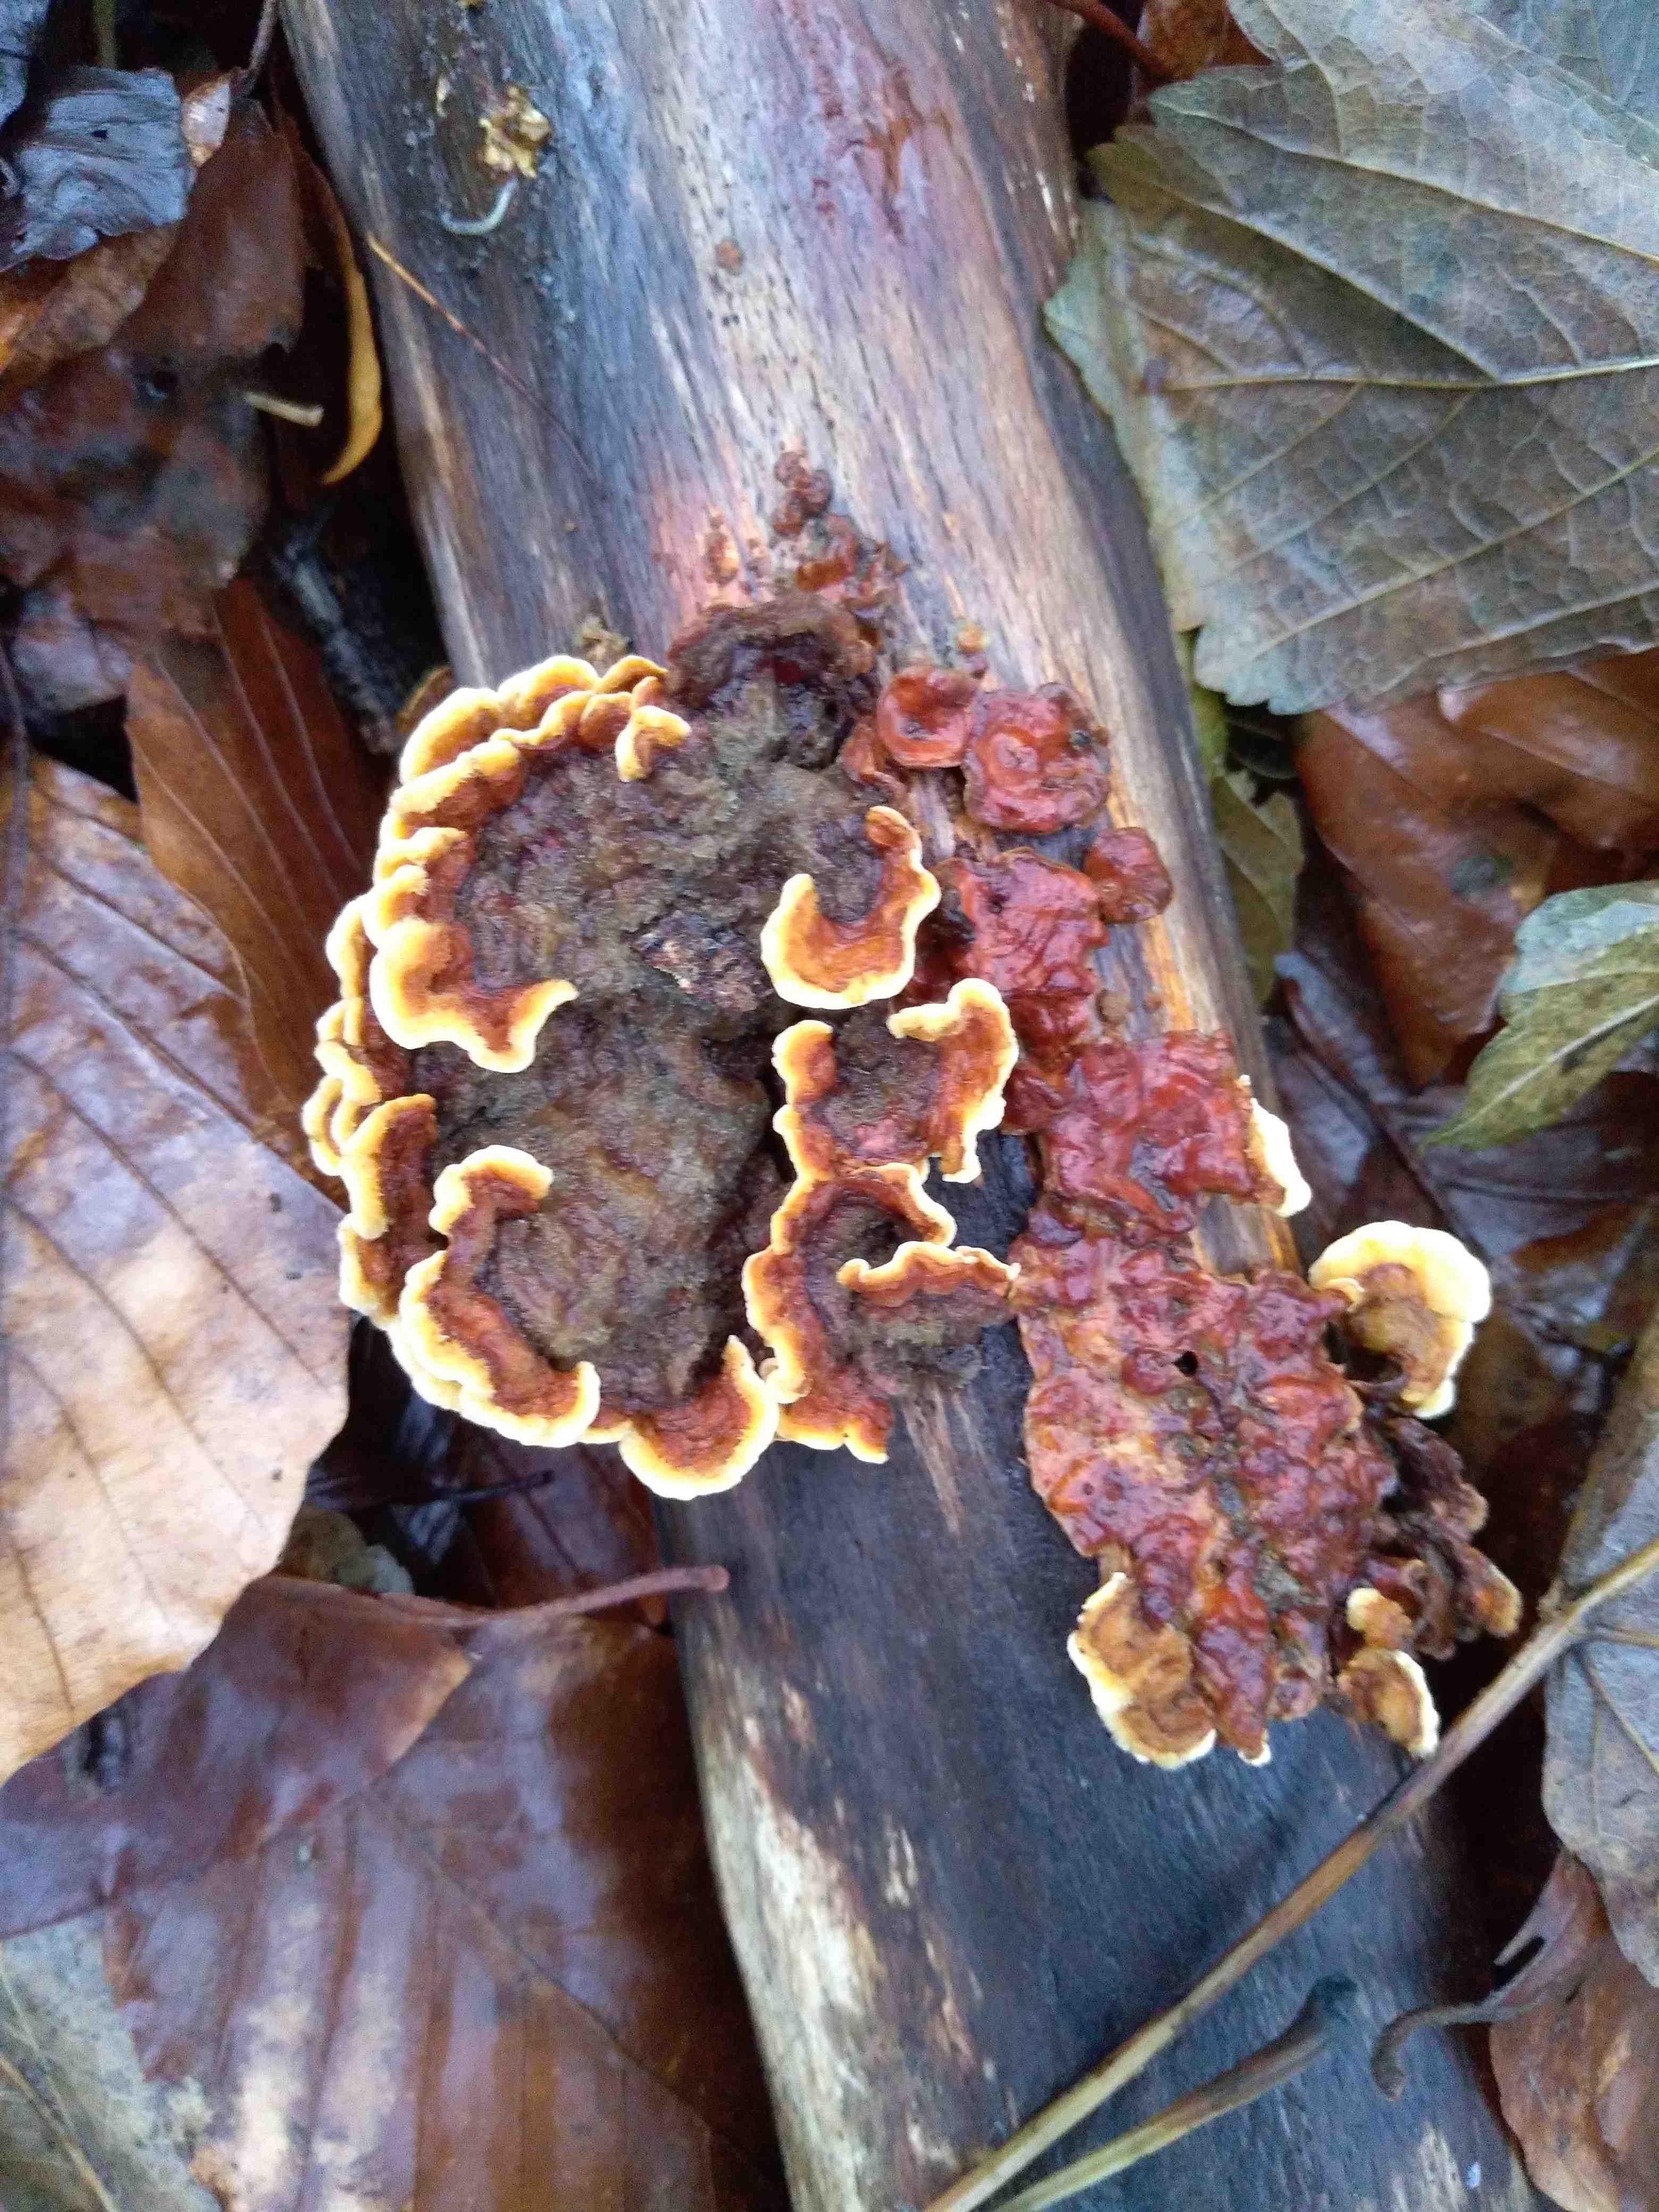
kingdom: Fungi
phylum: Basidiomycota
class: Agaricomycetes
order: Russulales
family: Stereaceae
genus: Stereum
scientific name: Stereum subtomentosum
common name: smuk lædersvamp
